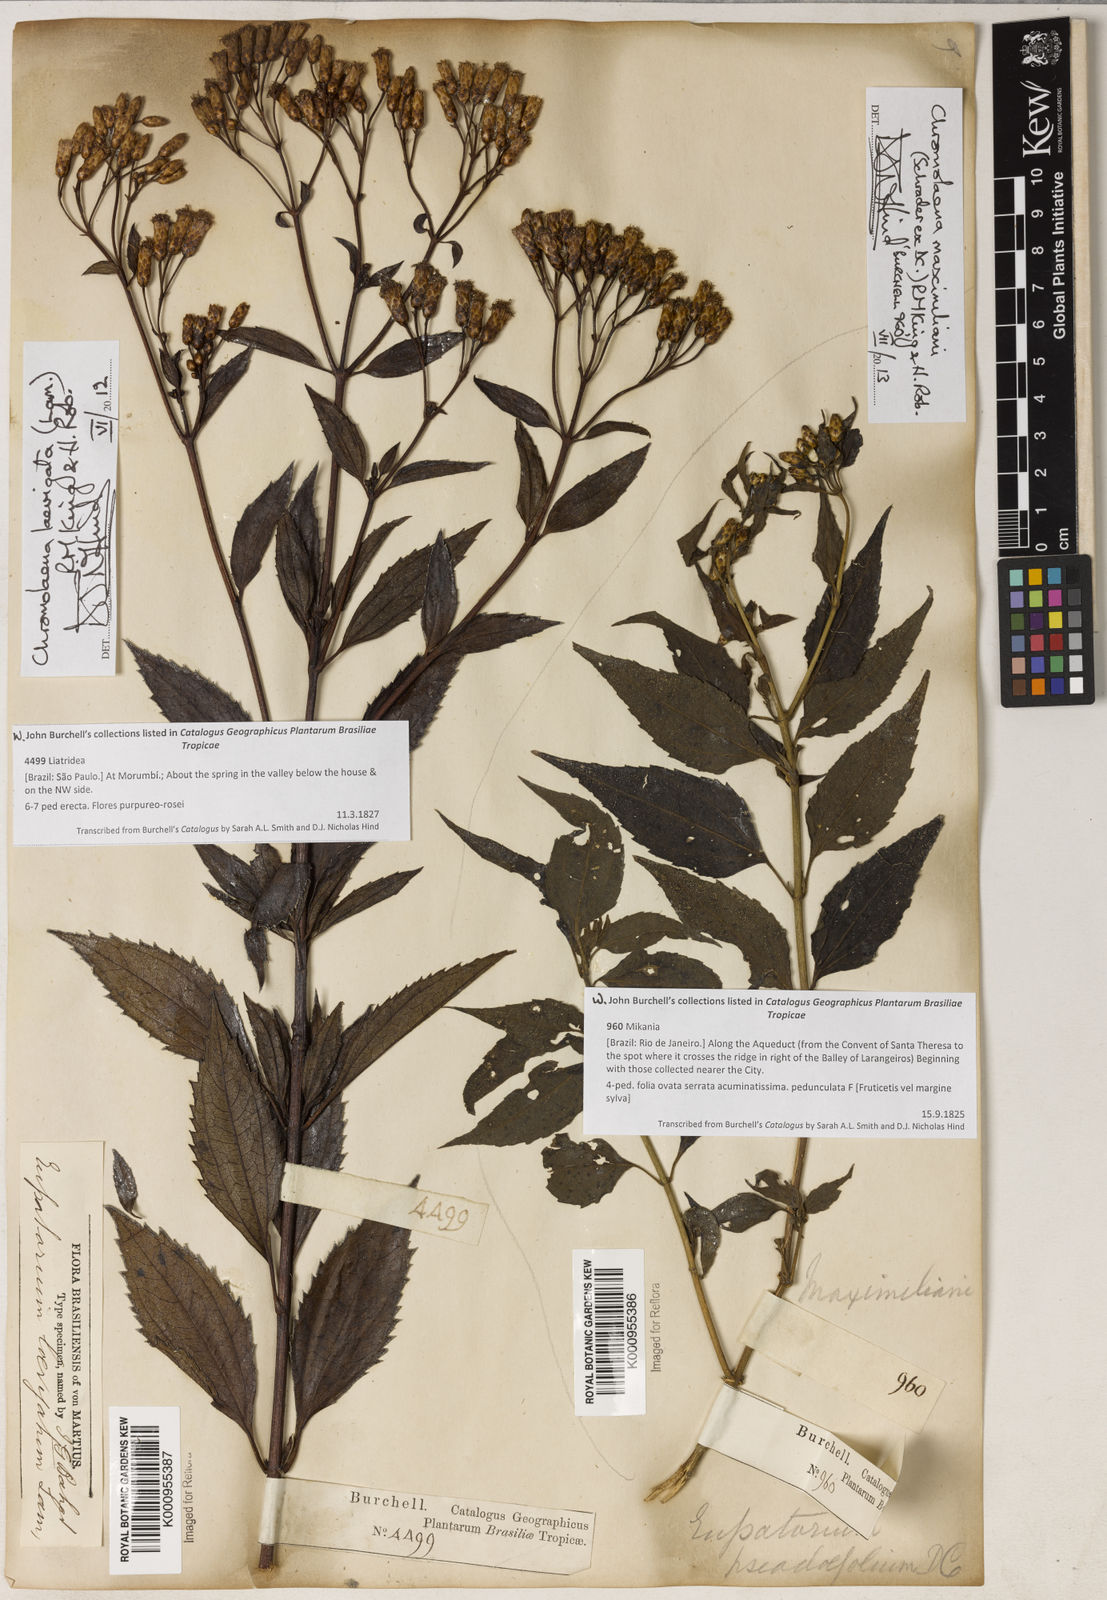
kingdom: Plantae
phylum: Tracheophyta
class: Magnoliopsida
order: Asterales
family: Asteraceae
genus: Chromolaena
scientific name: Chromolaena maximiliani
